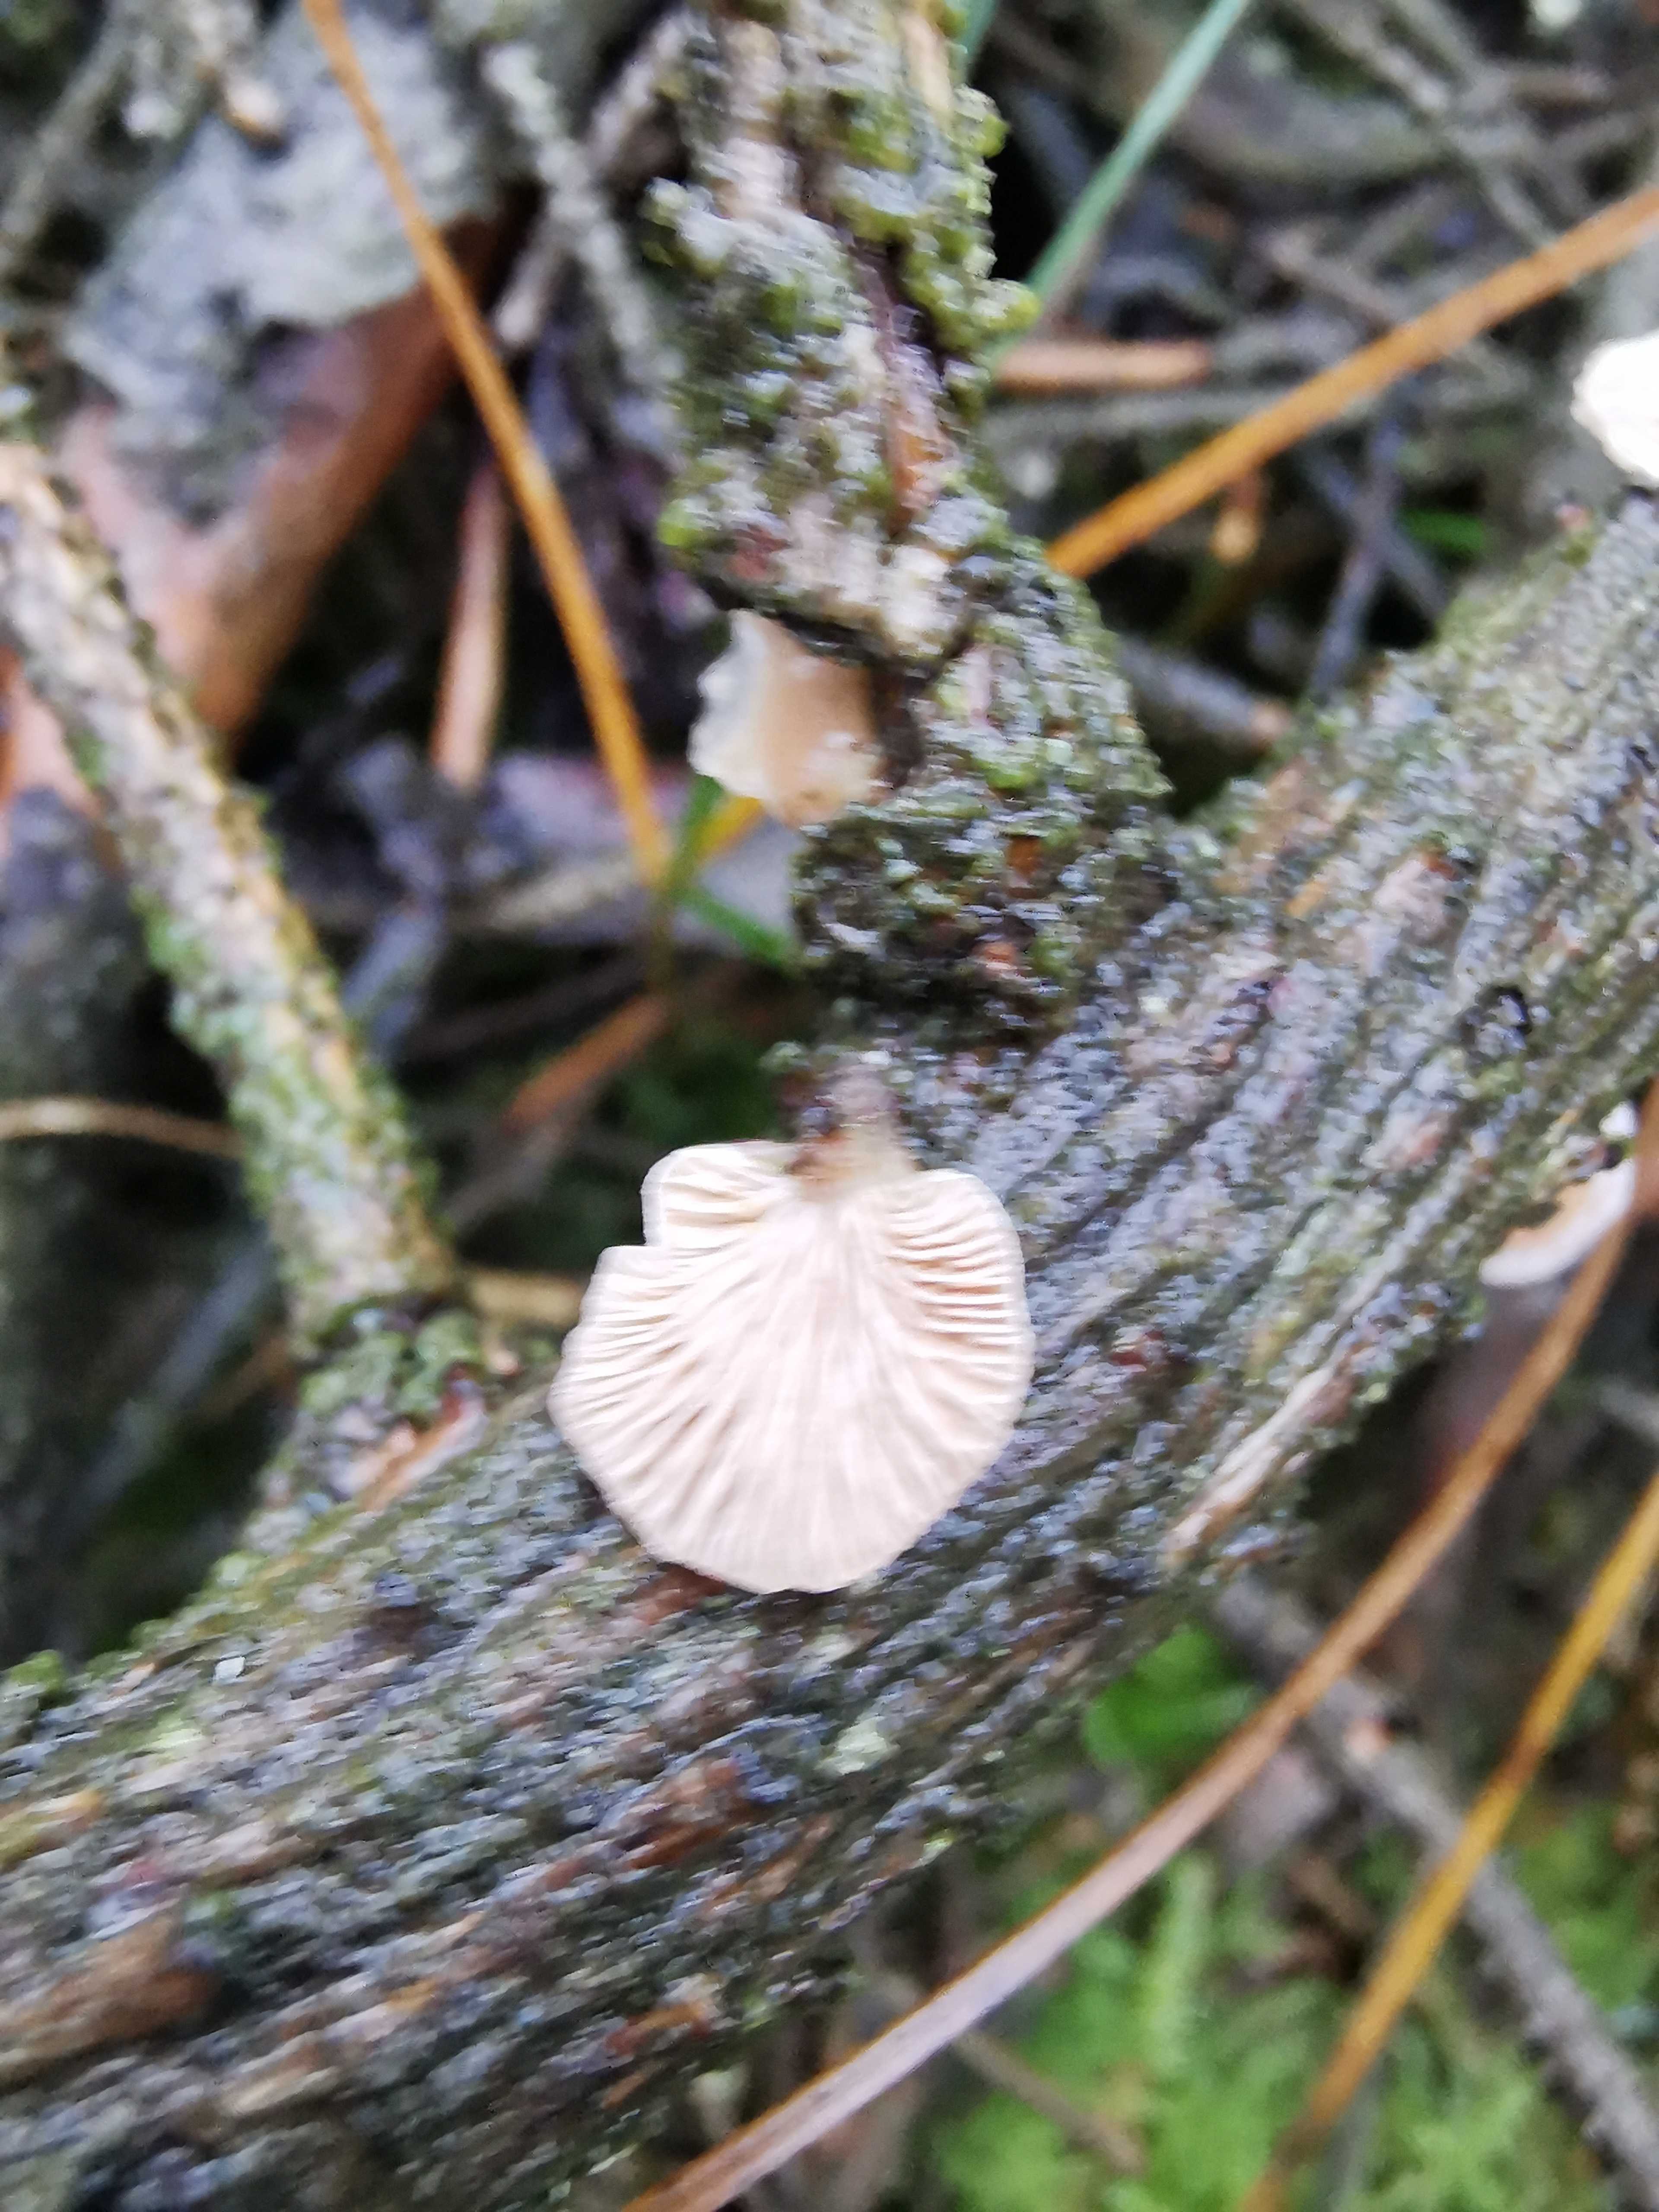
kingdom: Fungi
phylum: Basidiomycota
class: Agaricomycetes
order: Agaricales
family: Mycenaceae
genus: Panellus
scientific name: Panellus mitis
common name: mild epaulethat
